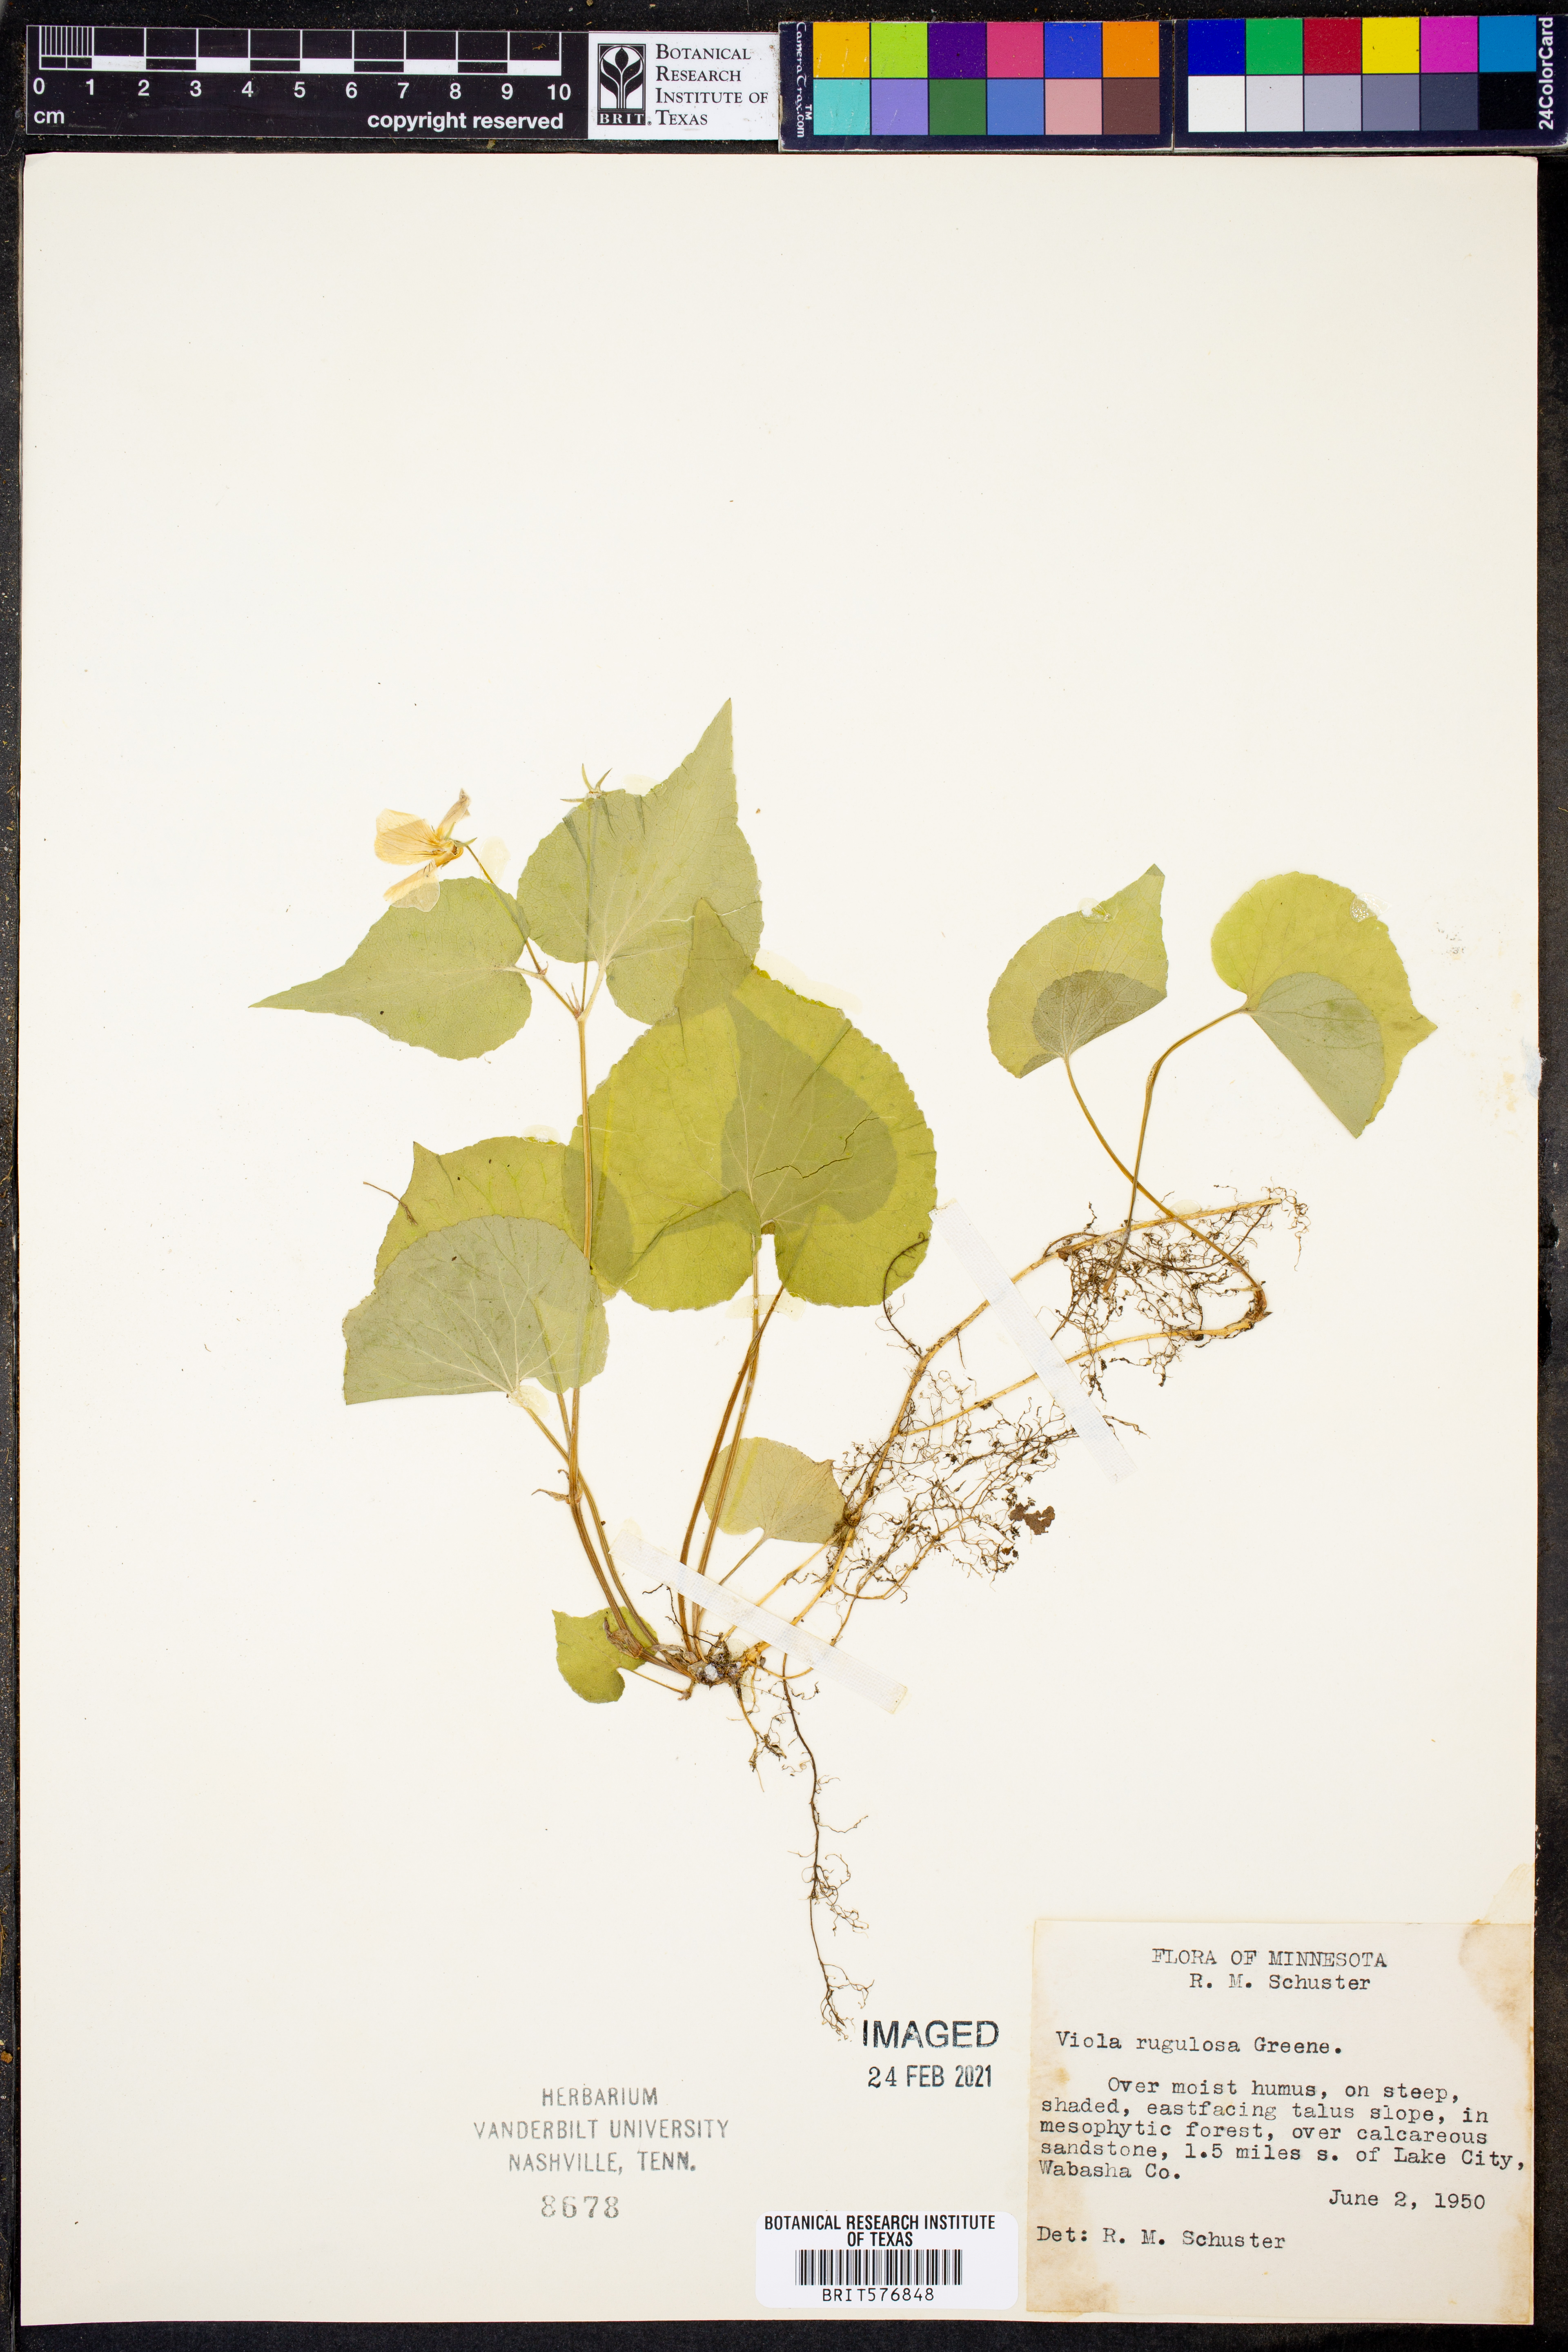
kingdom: Plantae
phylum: Tracheophyta
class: Magnoliopsida
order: Malpighiales
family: Violaceae
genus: Viola
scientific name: Viola rugulosa
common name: Creeping-root violet
